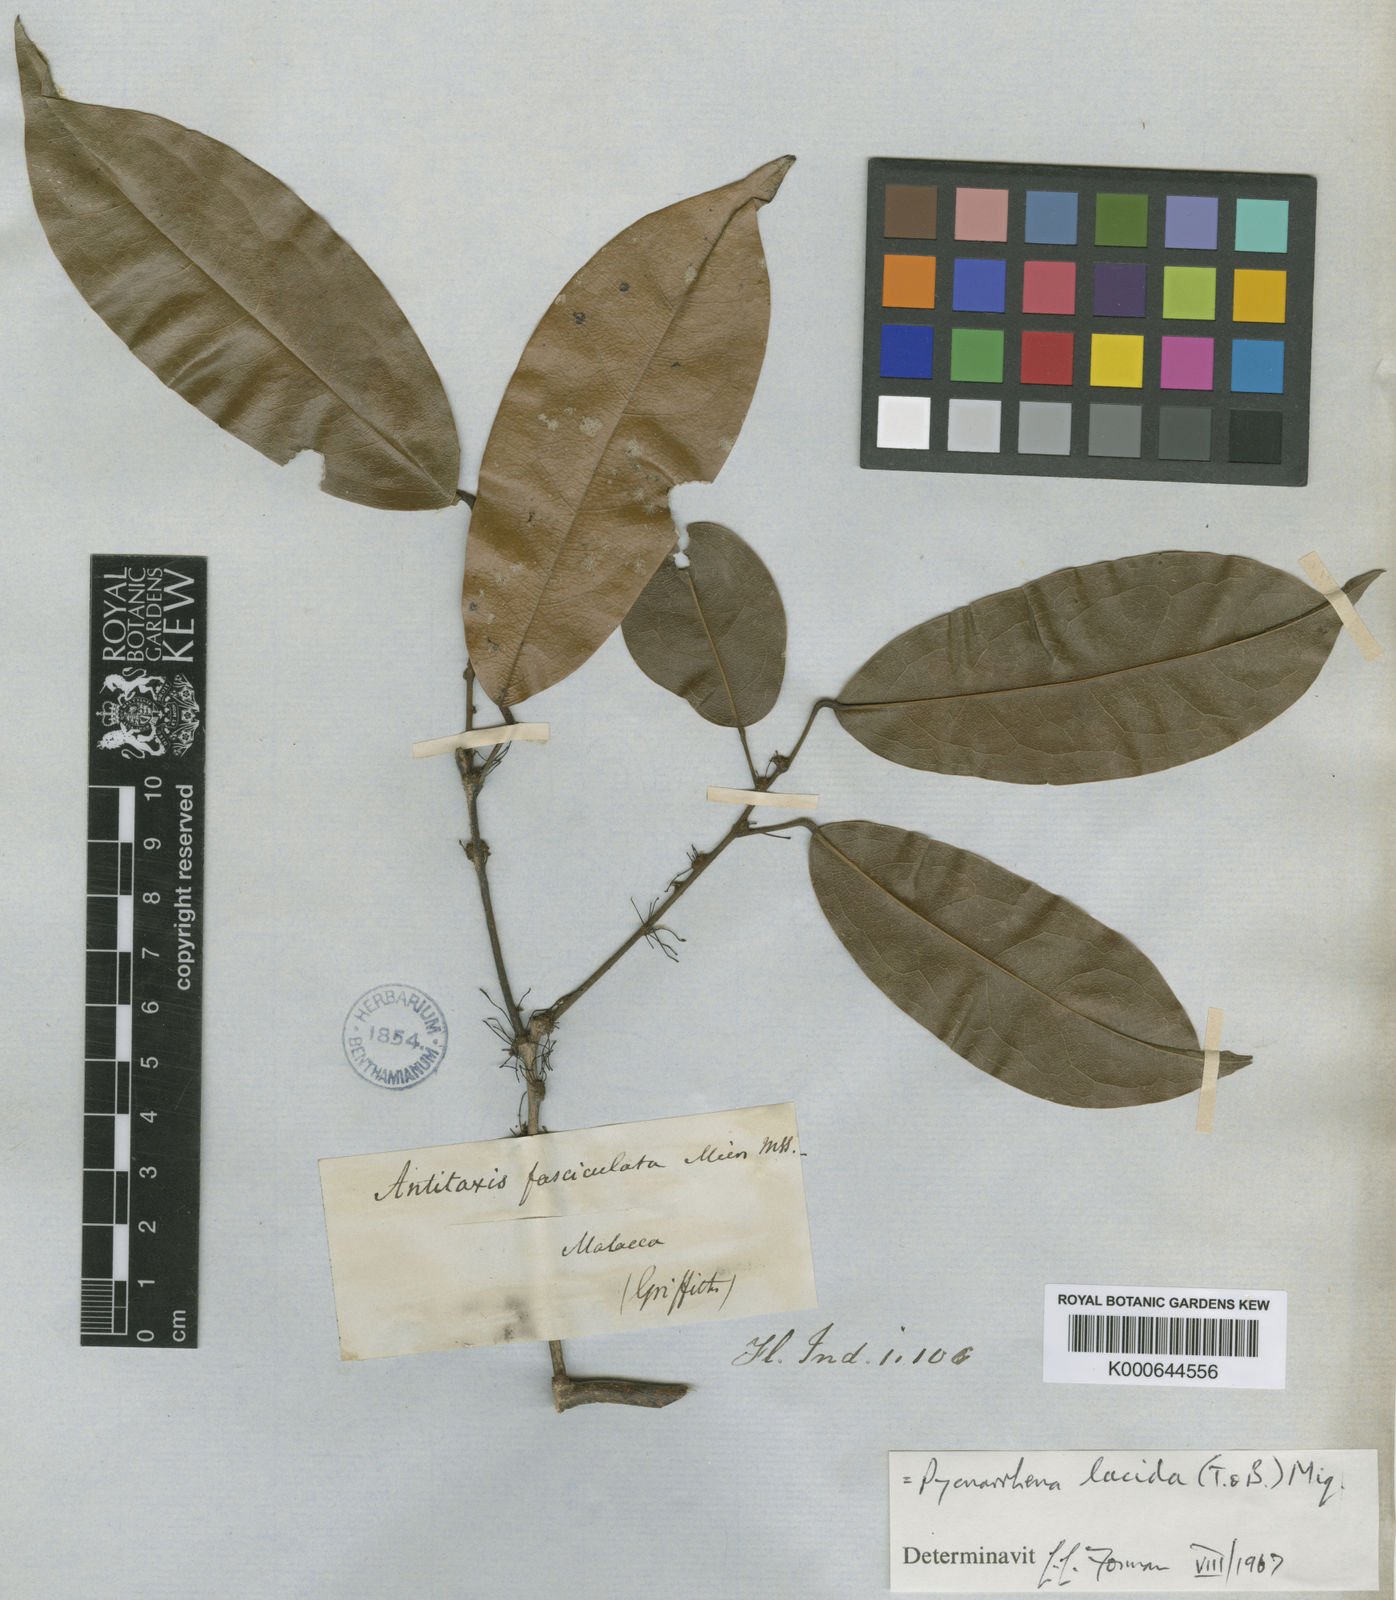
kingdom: Plantae
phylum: Tracheophyta
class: Magnoliopsida
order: Ranunculales
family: Menispermaceae
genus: Pycnarrhena
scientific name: Pycnarrhena lucida
